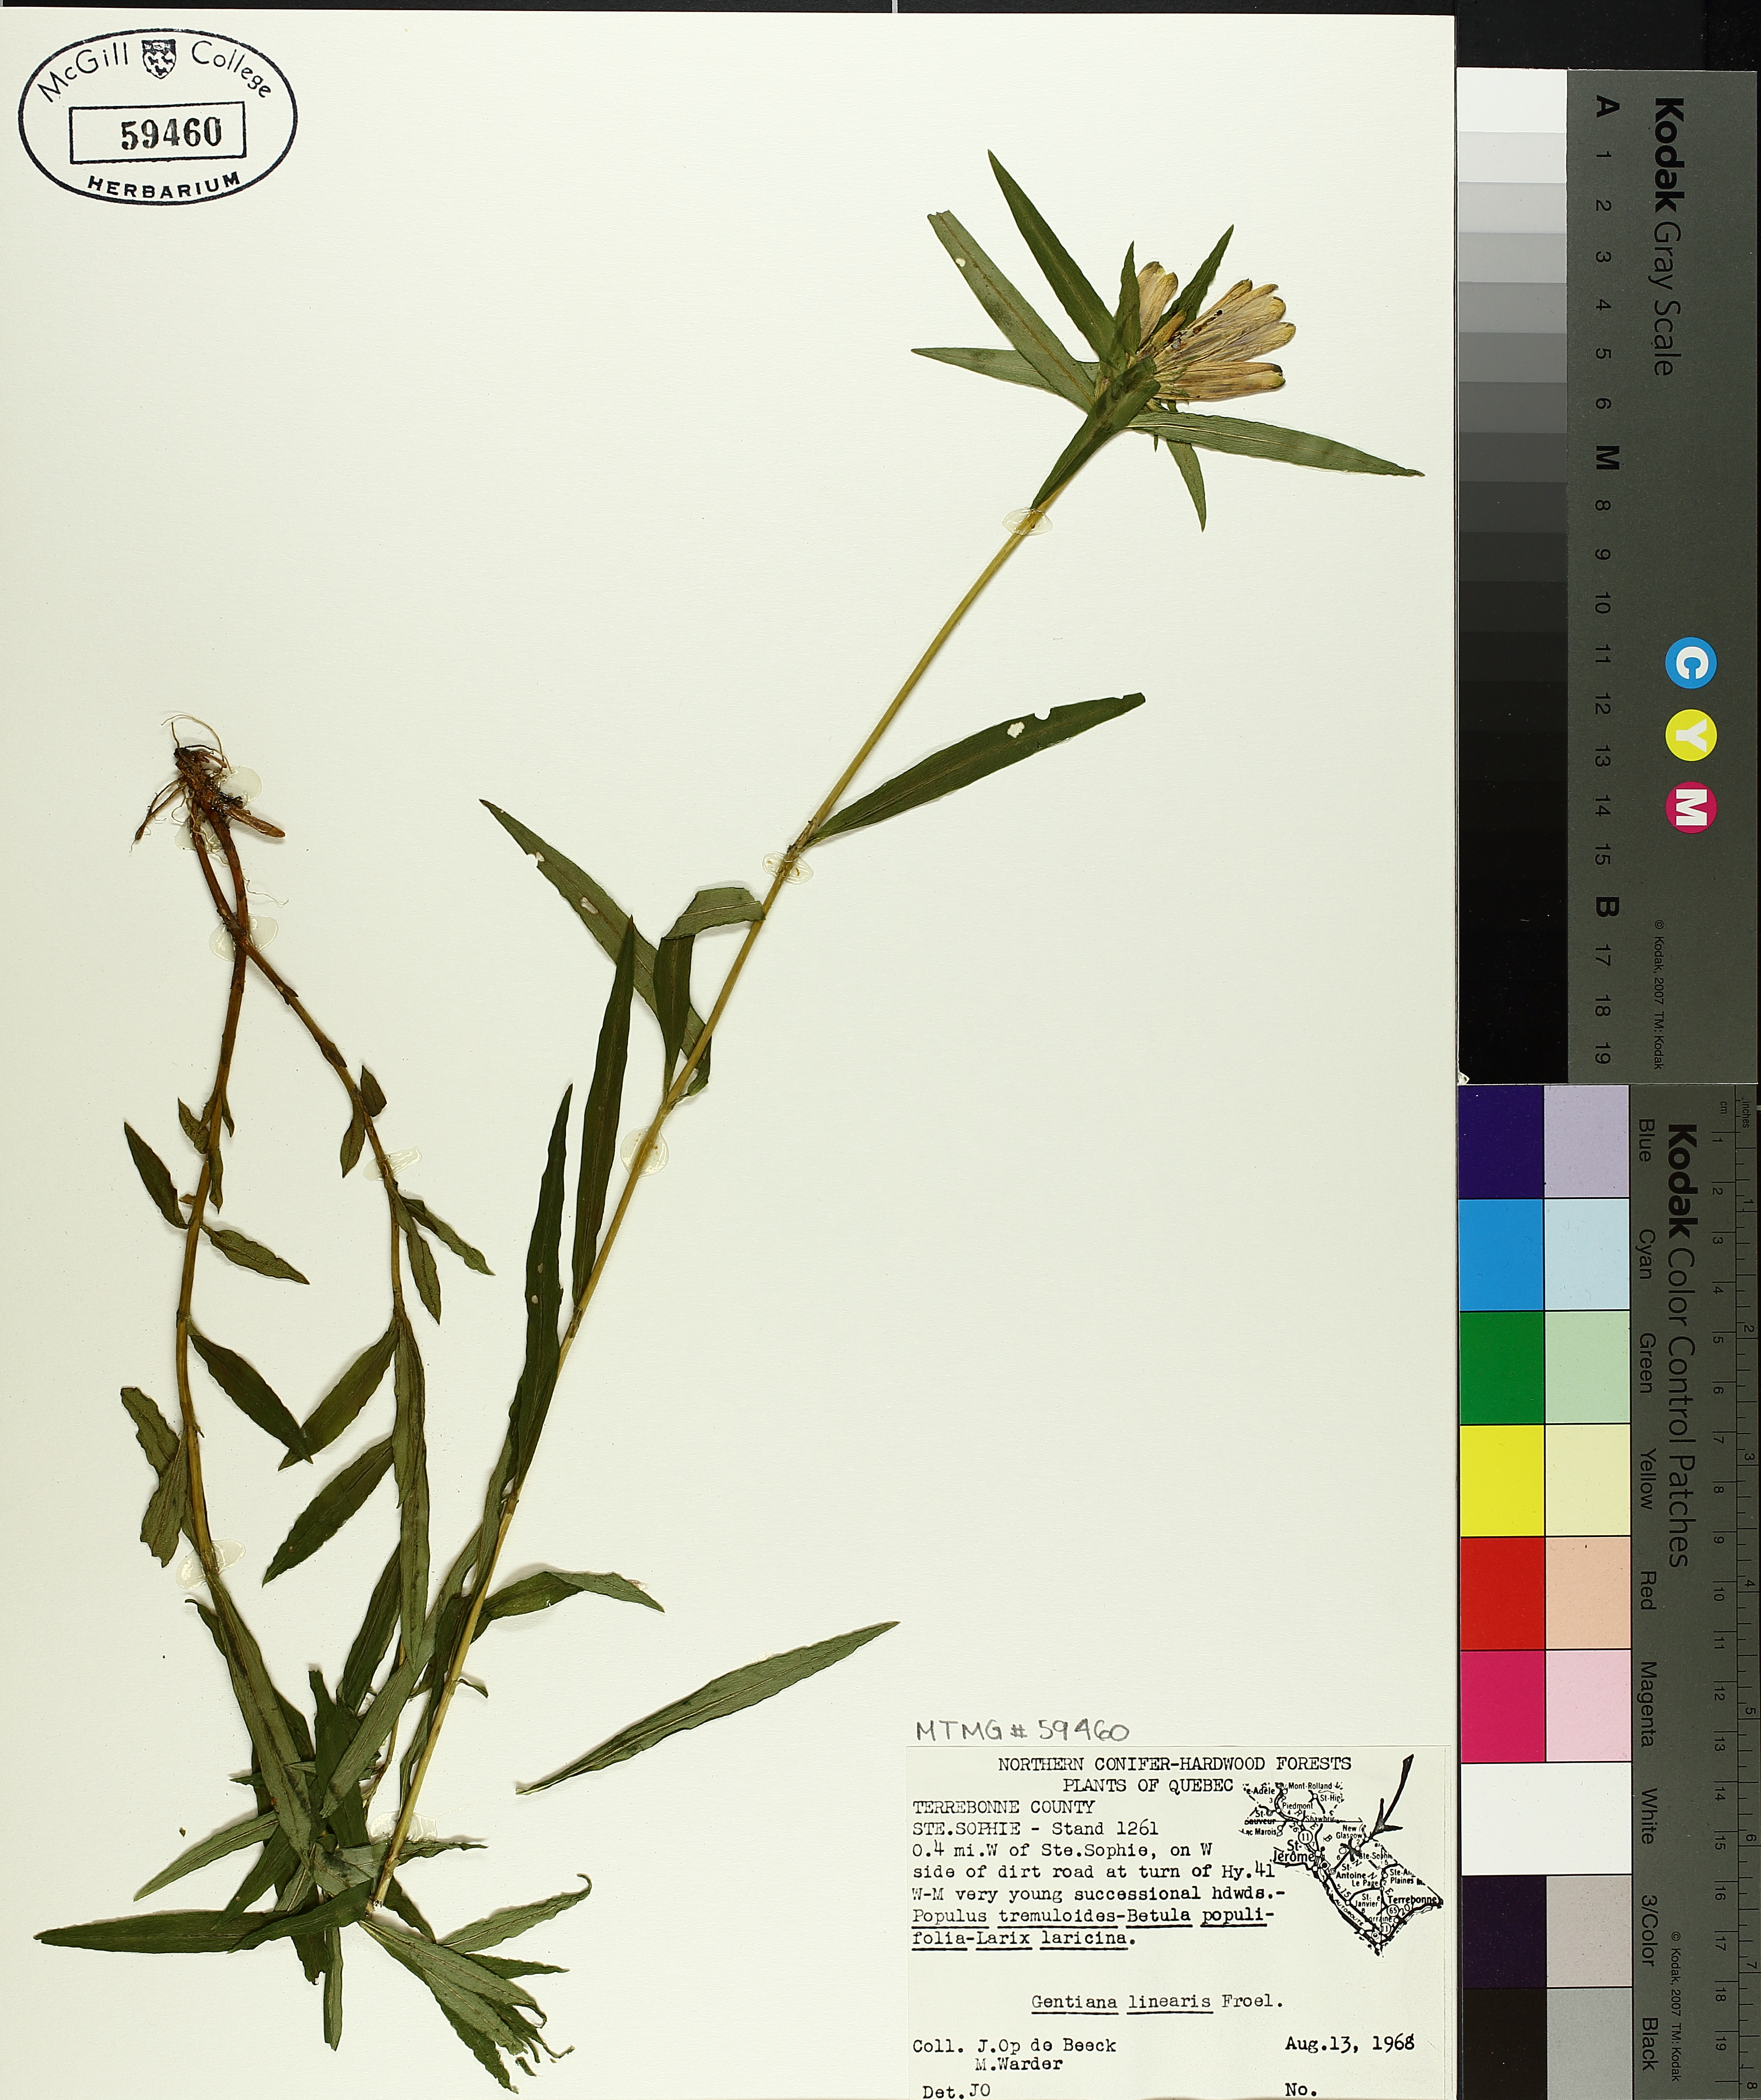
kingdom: Plantae
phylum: Tracheophyta
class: Magnoliopsida
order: Gentianales
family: Gentianaceae
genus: Gentiana
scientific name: Gentiana linearis
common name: Bastard gentian
